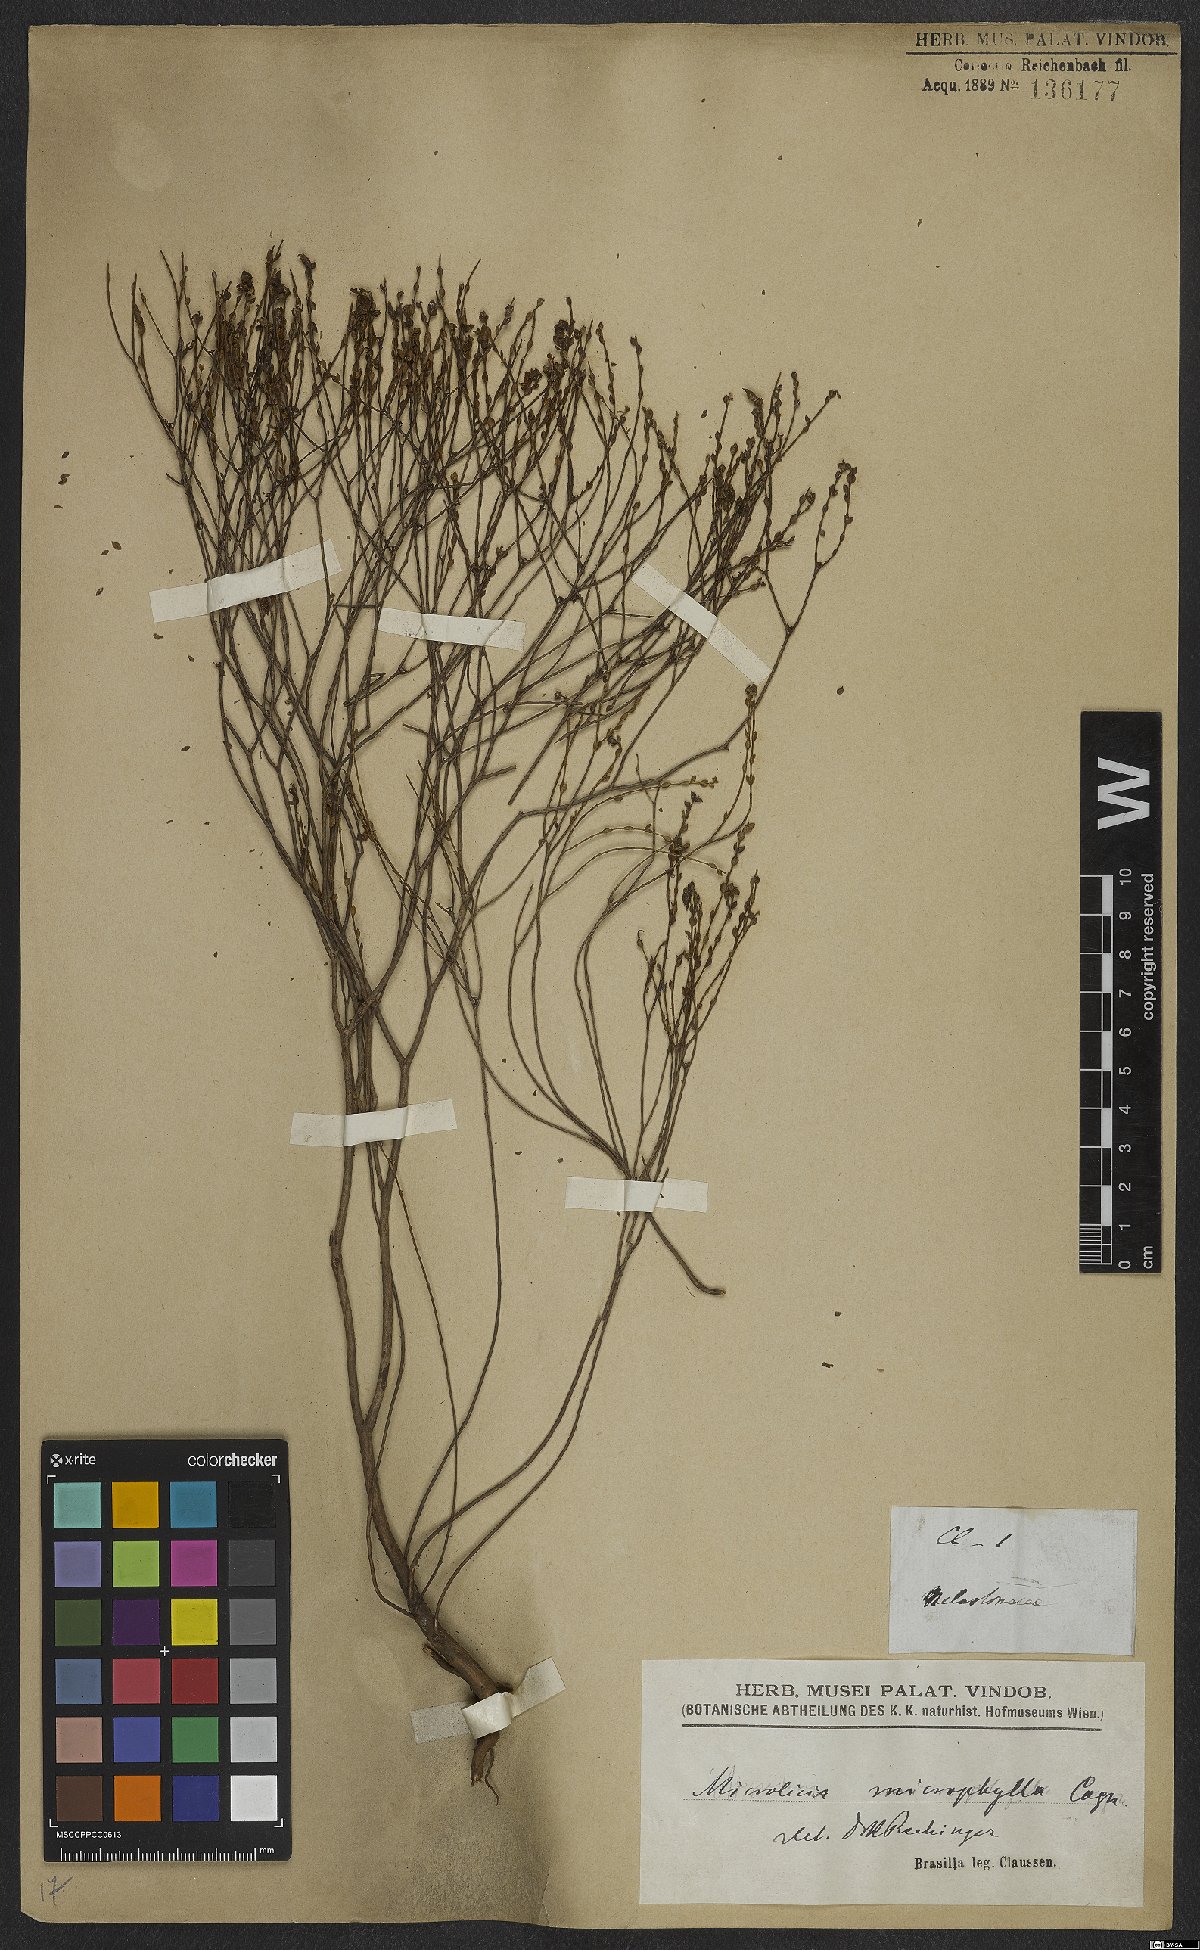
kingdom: Plantae
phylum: Tracheophyta
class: Magnoliopsida
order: Myrtales
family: Melastomataceae
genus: Microlicia
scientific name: Microlicia microphylla
